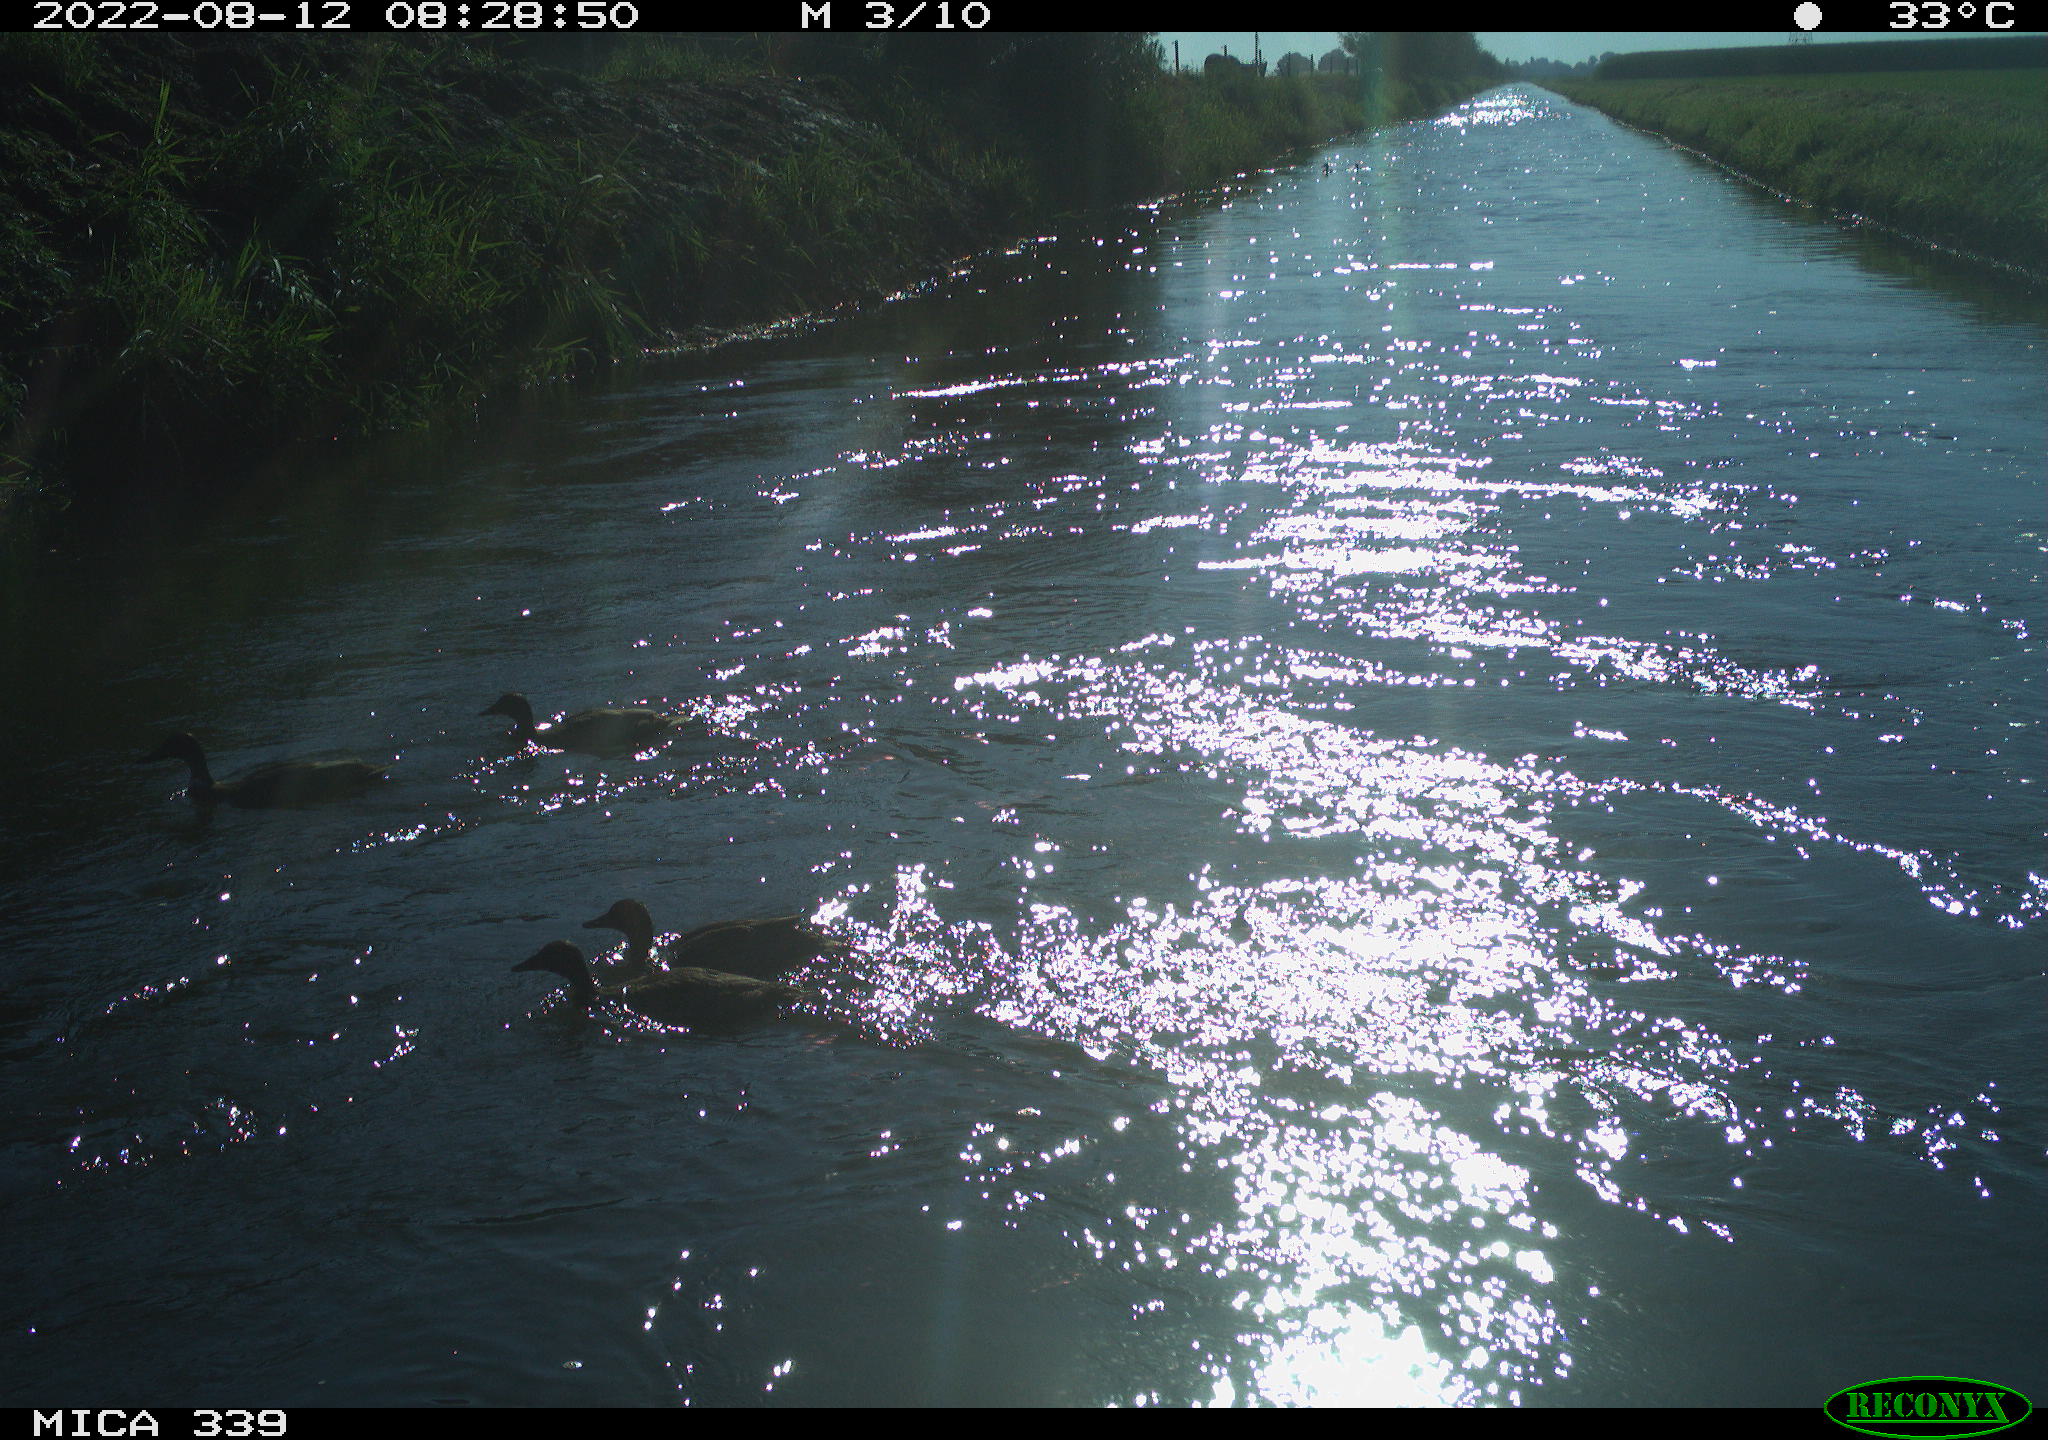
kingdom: Animalia
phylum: Chordata
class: Aves
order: Anseriformes
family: Anatidae
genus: Anas
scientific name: Anas platyrhynchos
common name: Mallard
